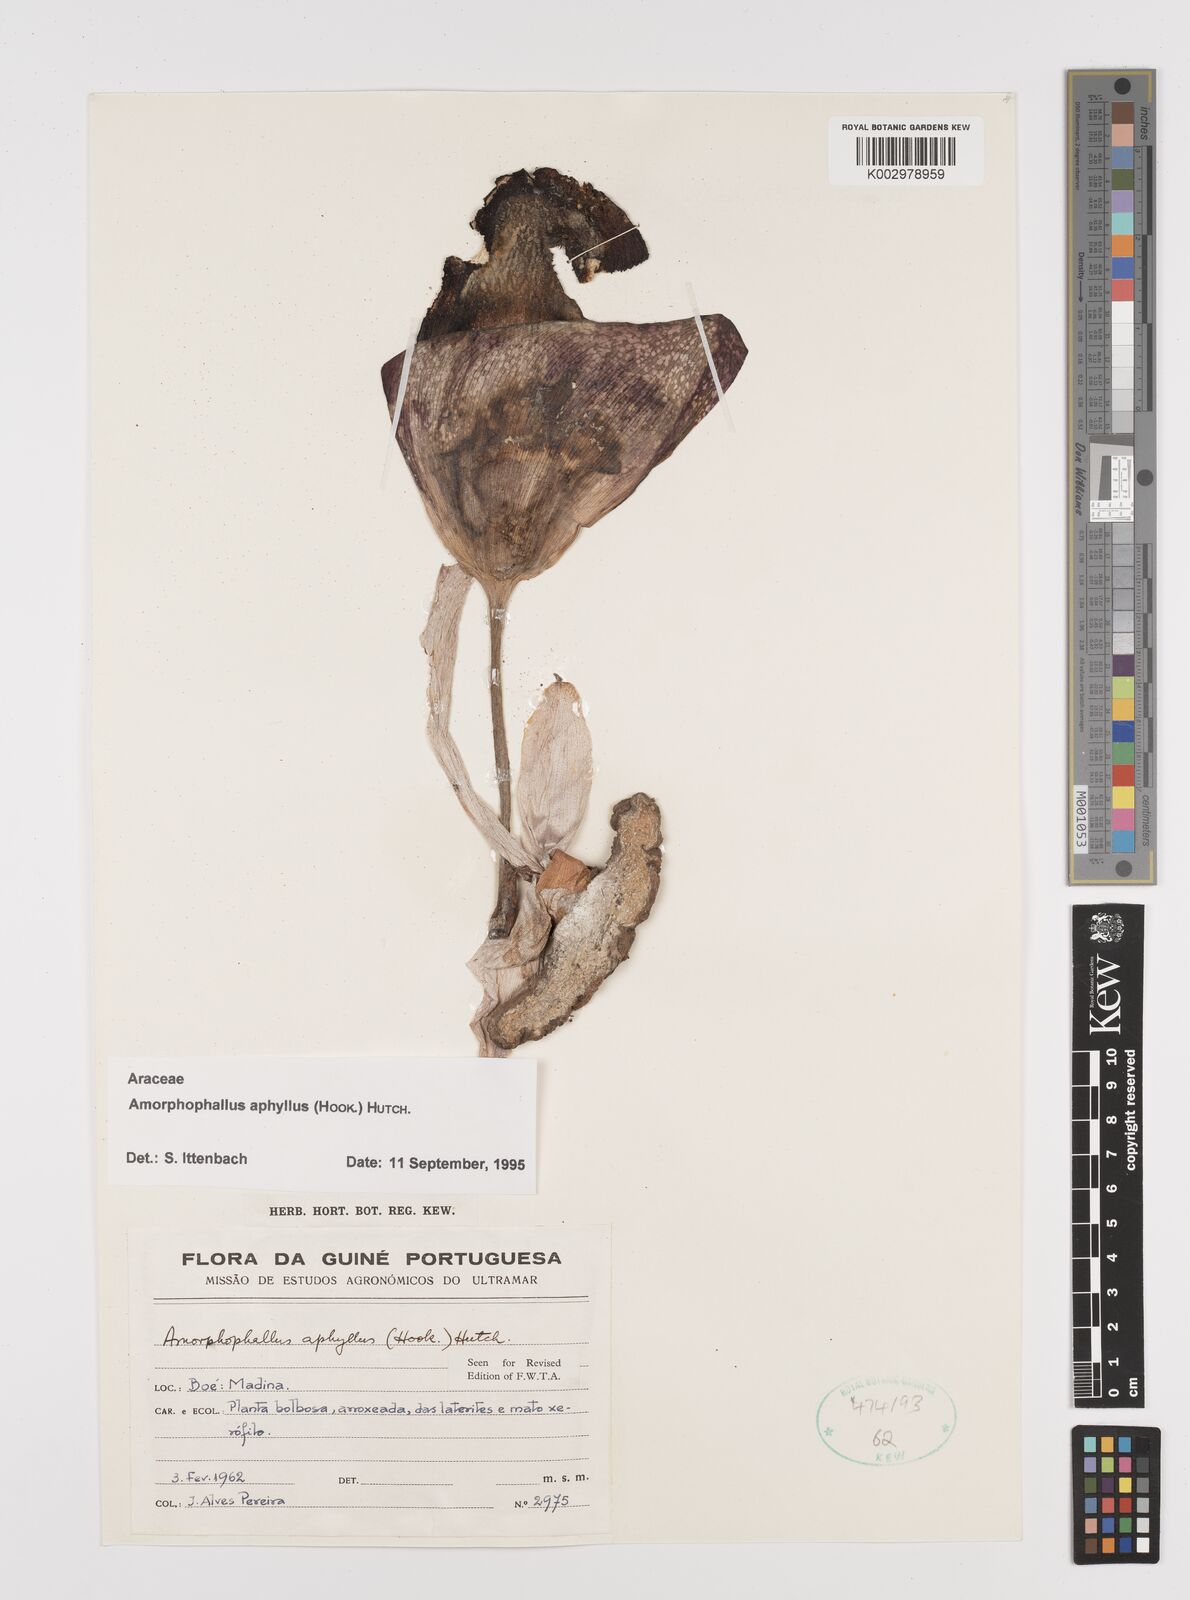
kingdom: Plantae
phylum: Tracheophyta
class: Liliopsida
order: Alismatales
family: Araceae
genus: Amorphophallus
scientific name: Amorphophallus aphyllus
